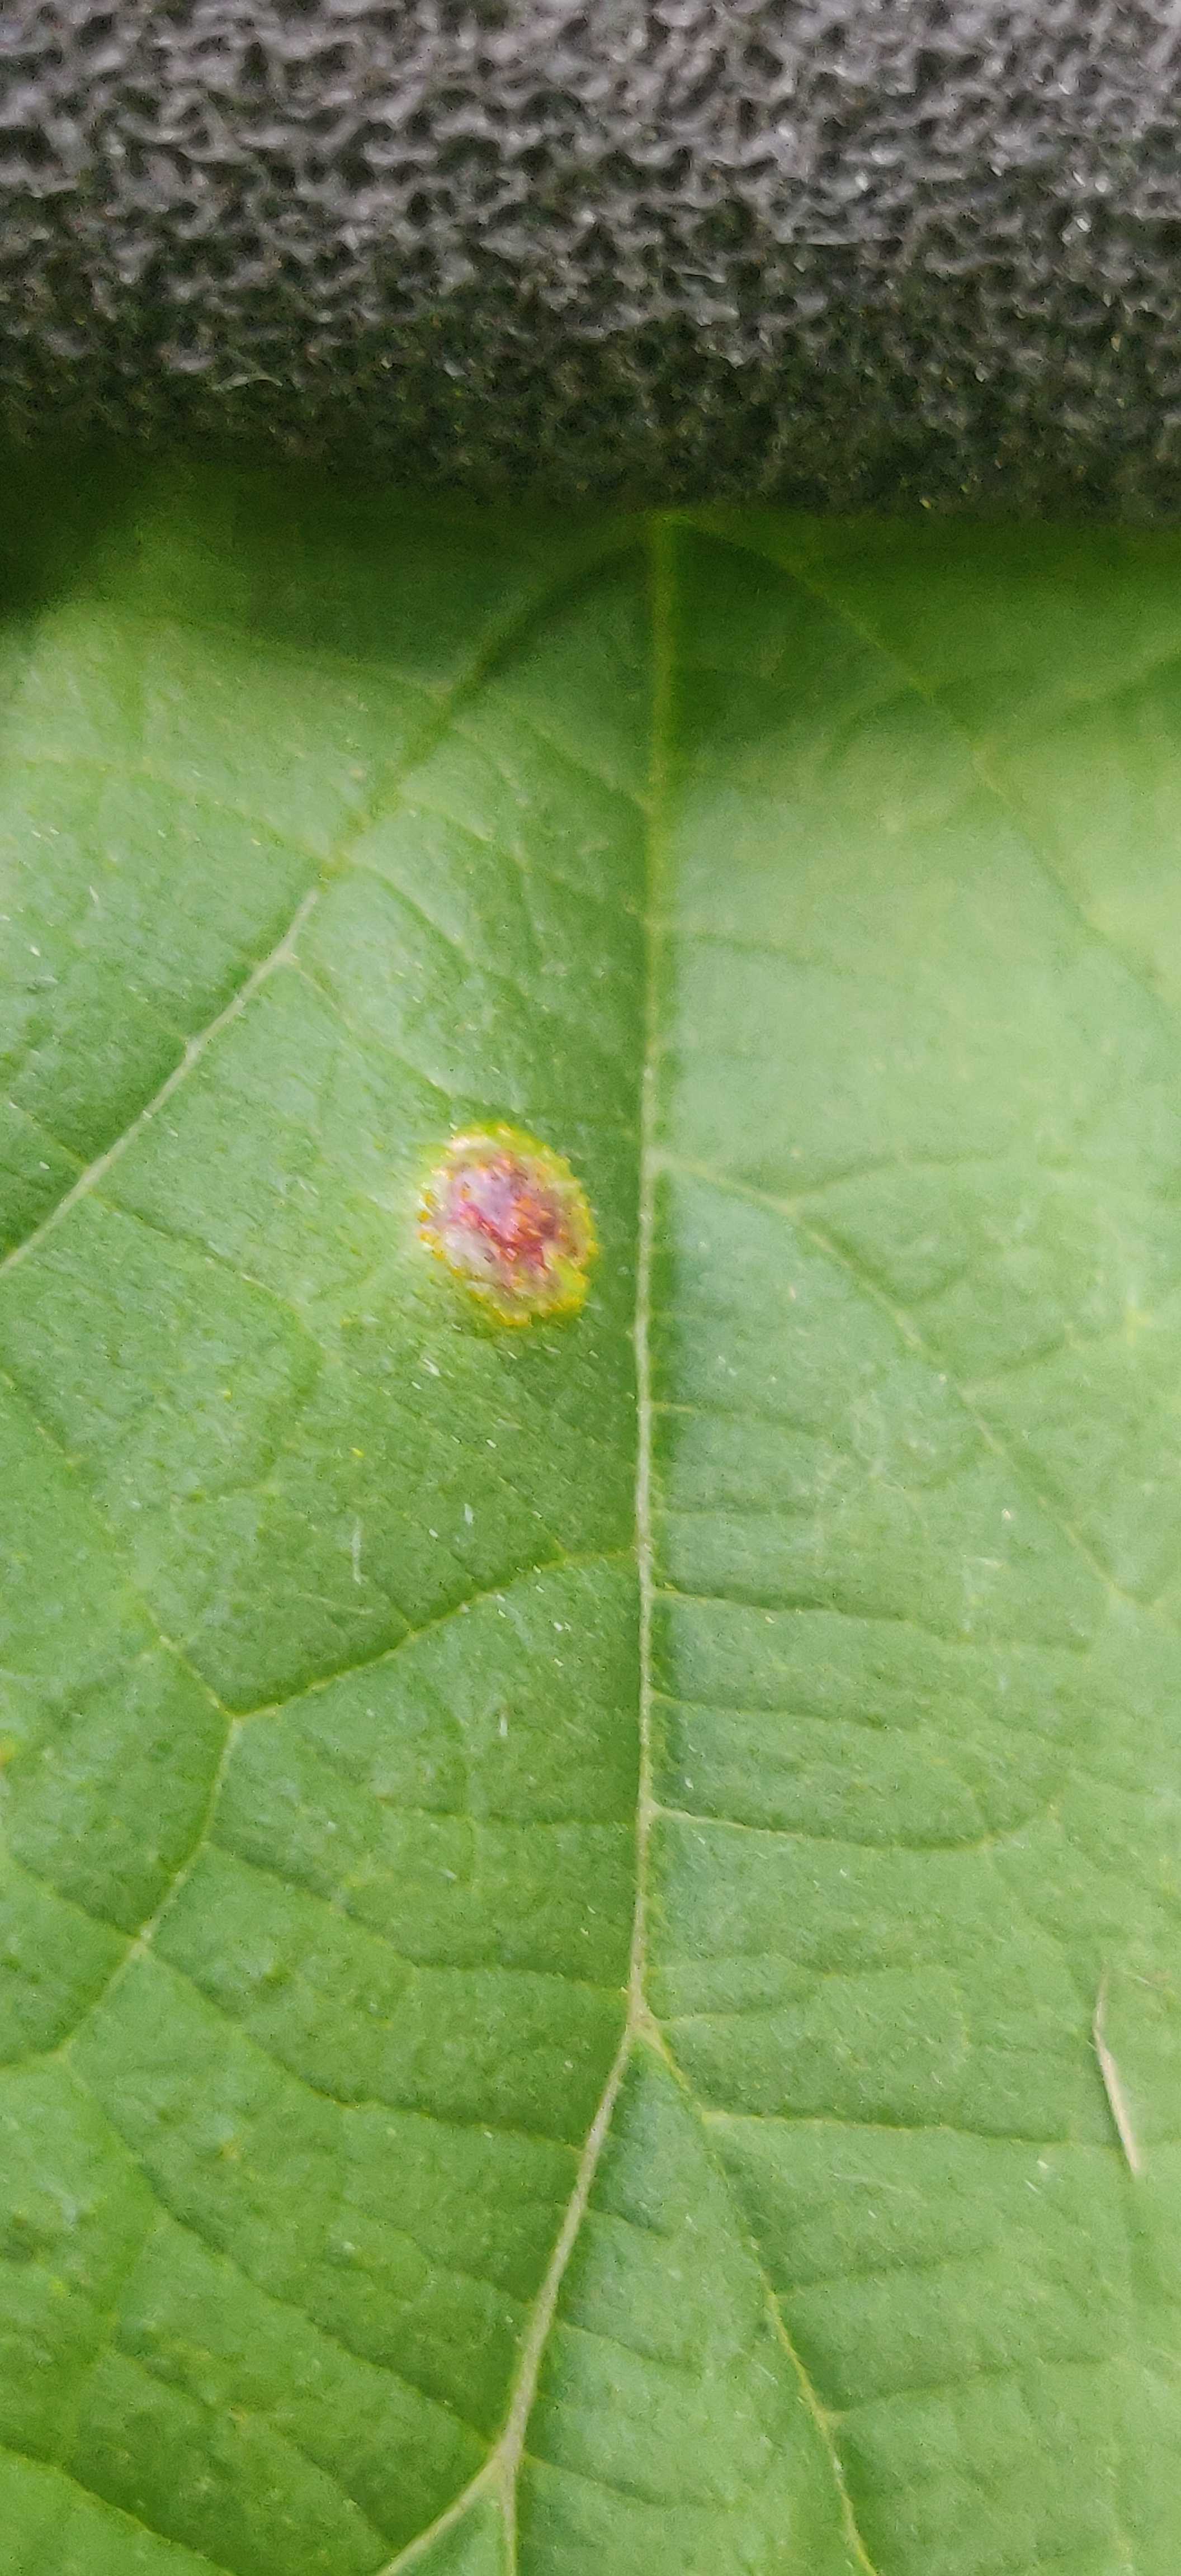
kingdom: Fungi
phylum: Basidiomycota
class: Pucciniomycetes
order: Pucciniales
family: Pucciniaceae
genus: Puccinia
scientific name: Puccinia
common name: tvecellerust
